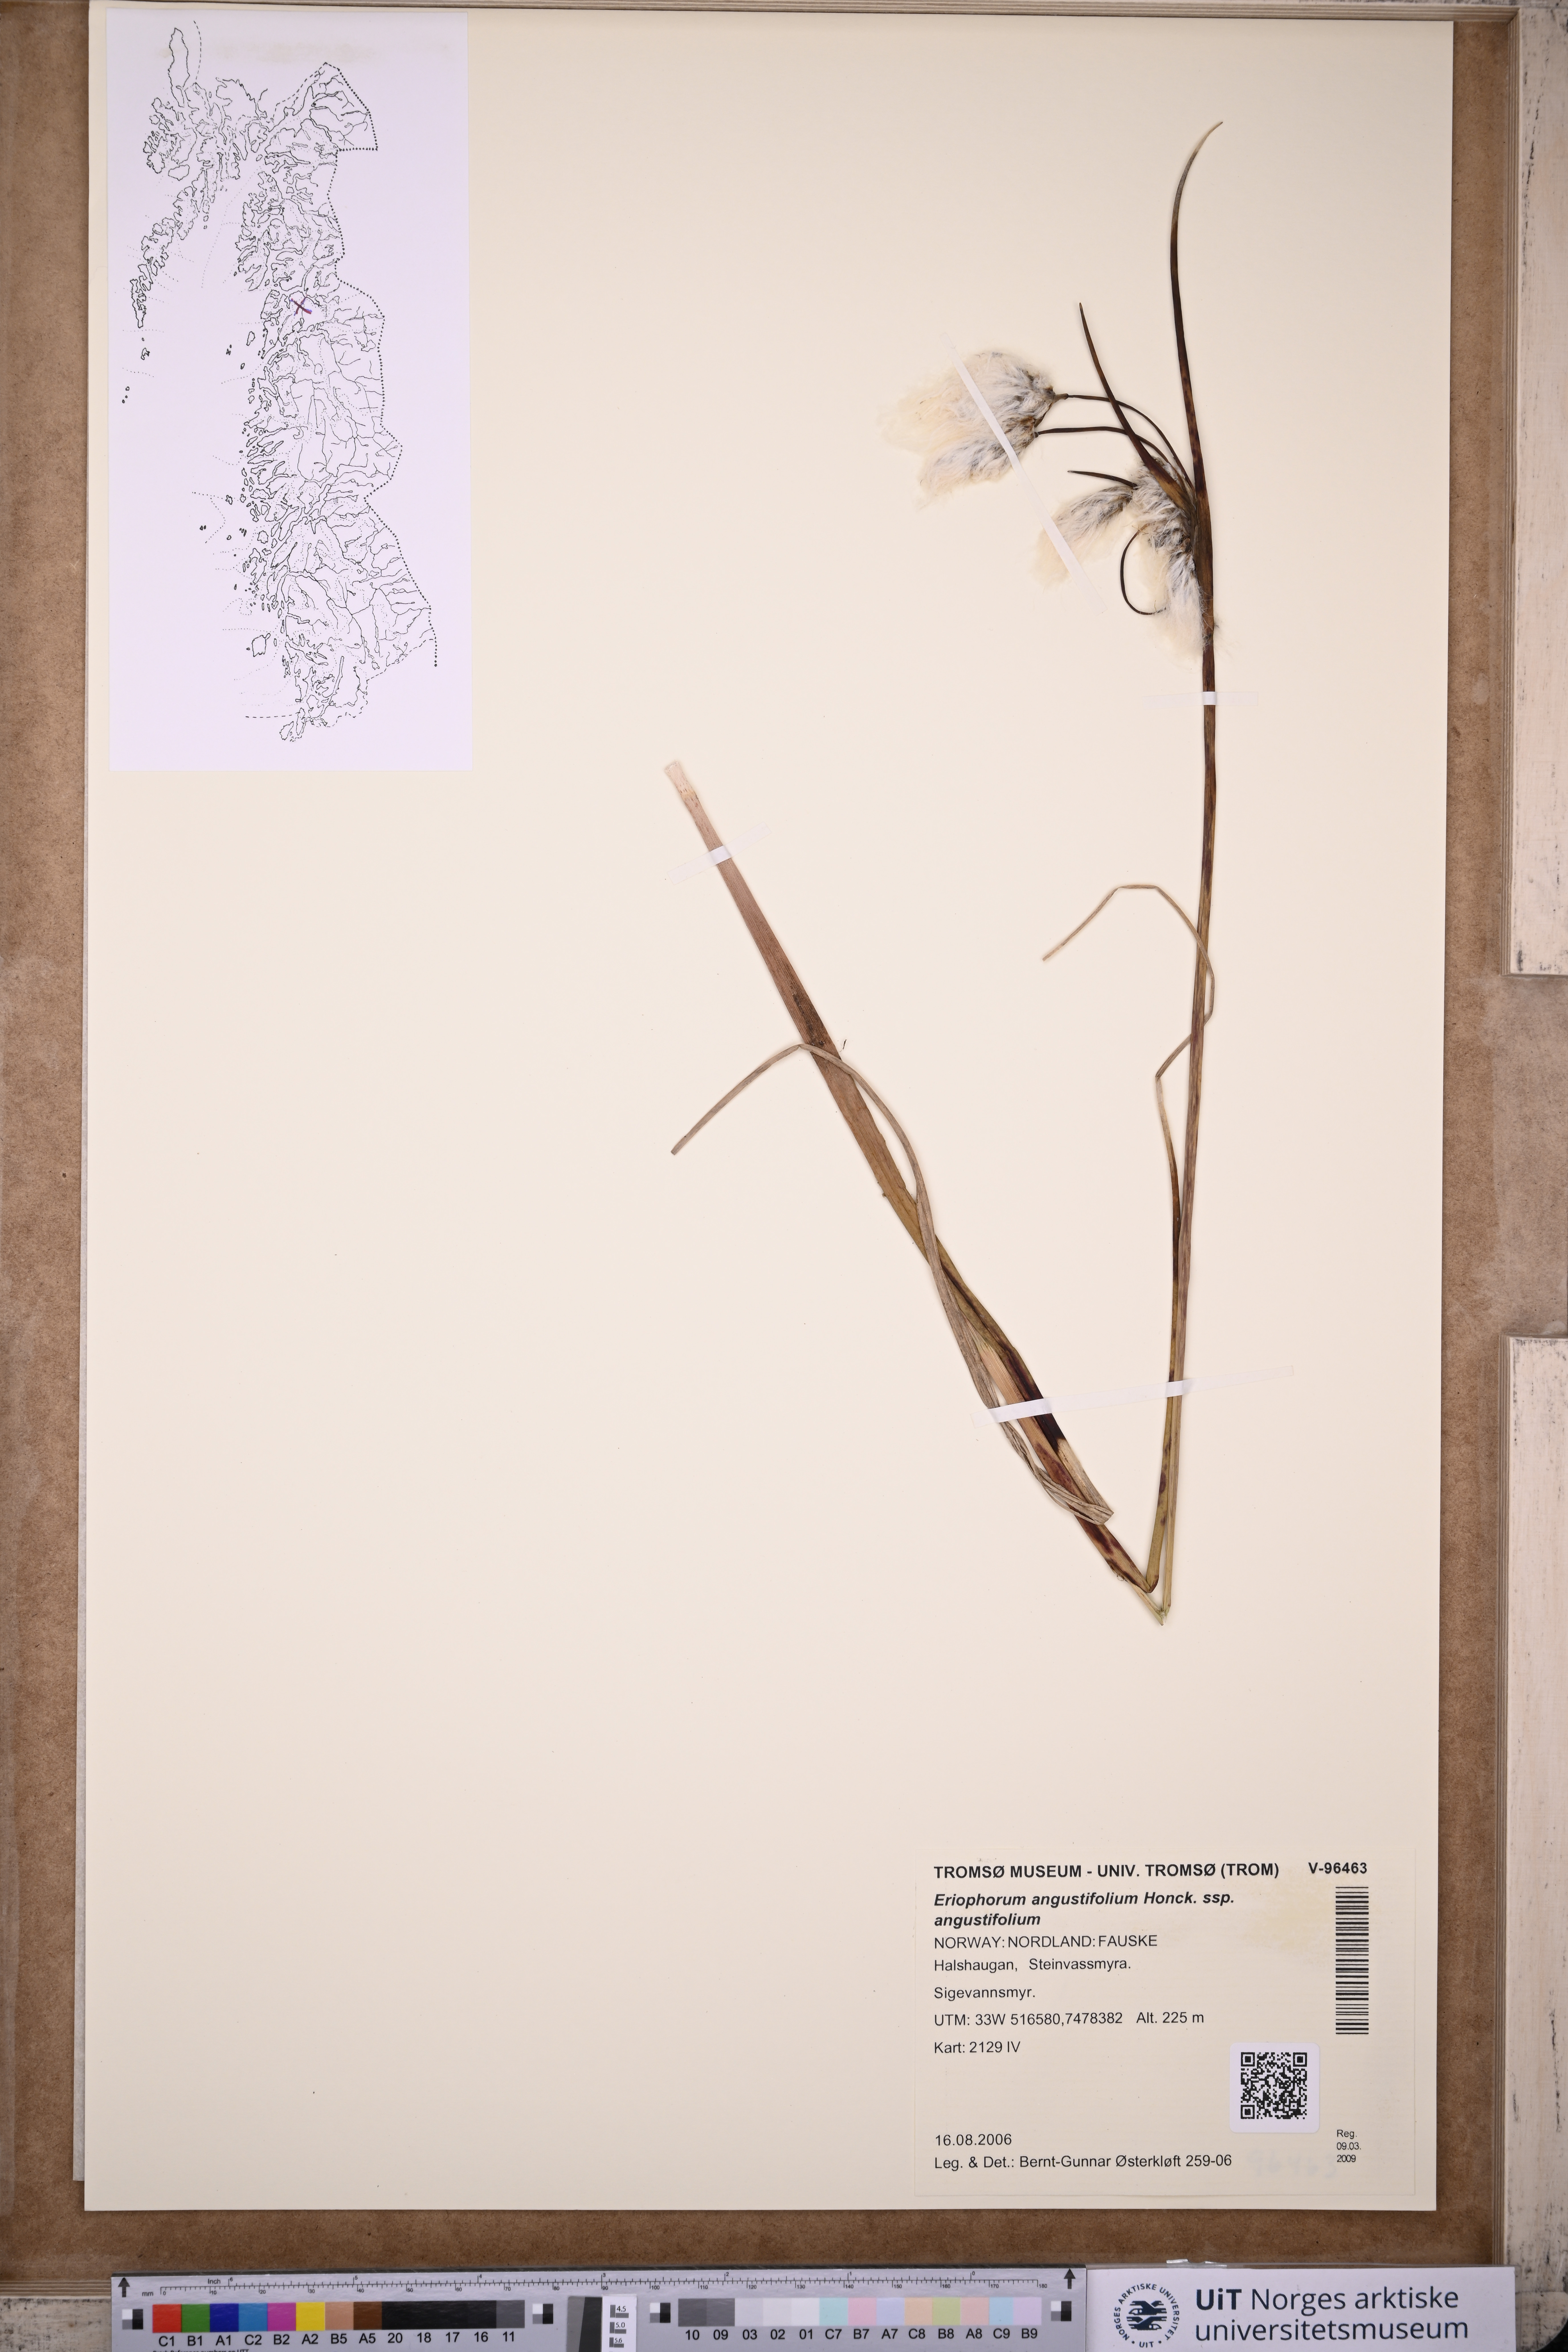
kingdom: Plantae
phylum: Tracheophyta
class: Liliopsida
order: Poales
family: Cyperaceae
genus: Eriophorum
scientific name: Eriophorum angustifolium
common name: Common cottongrass
